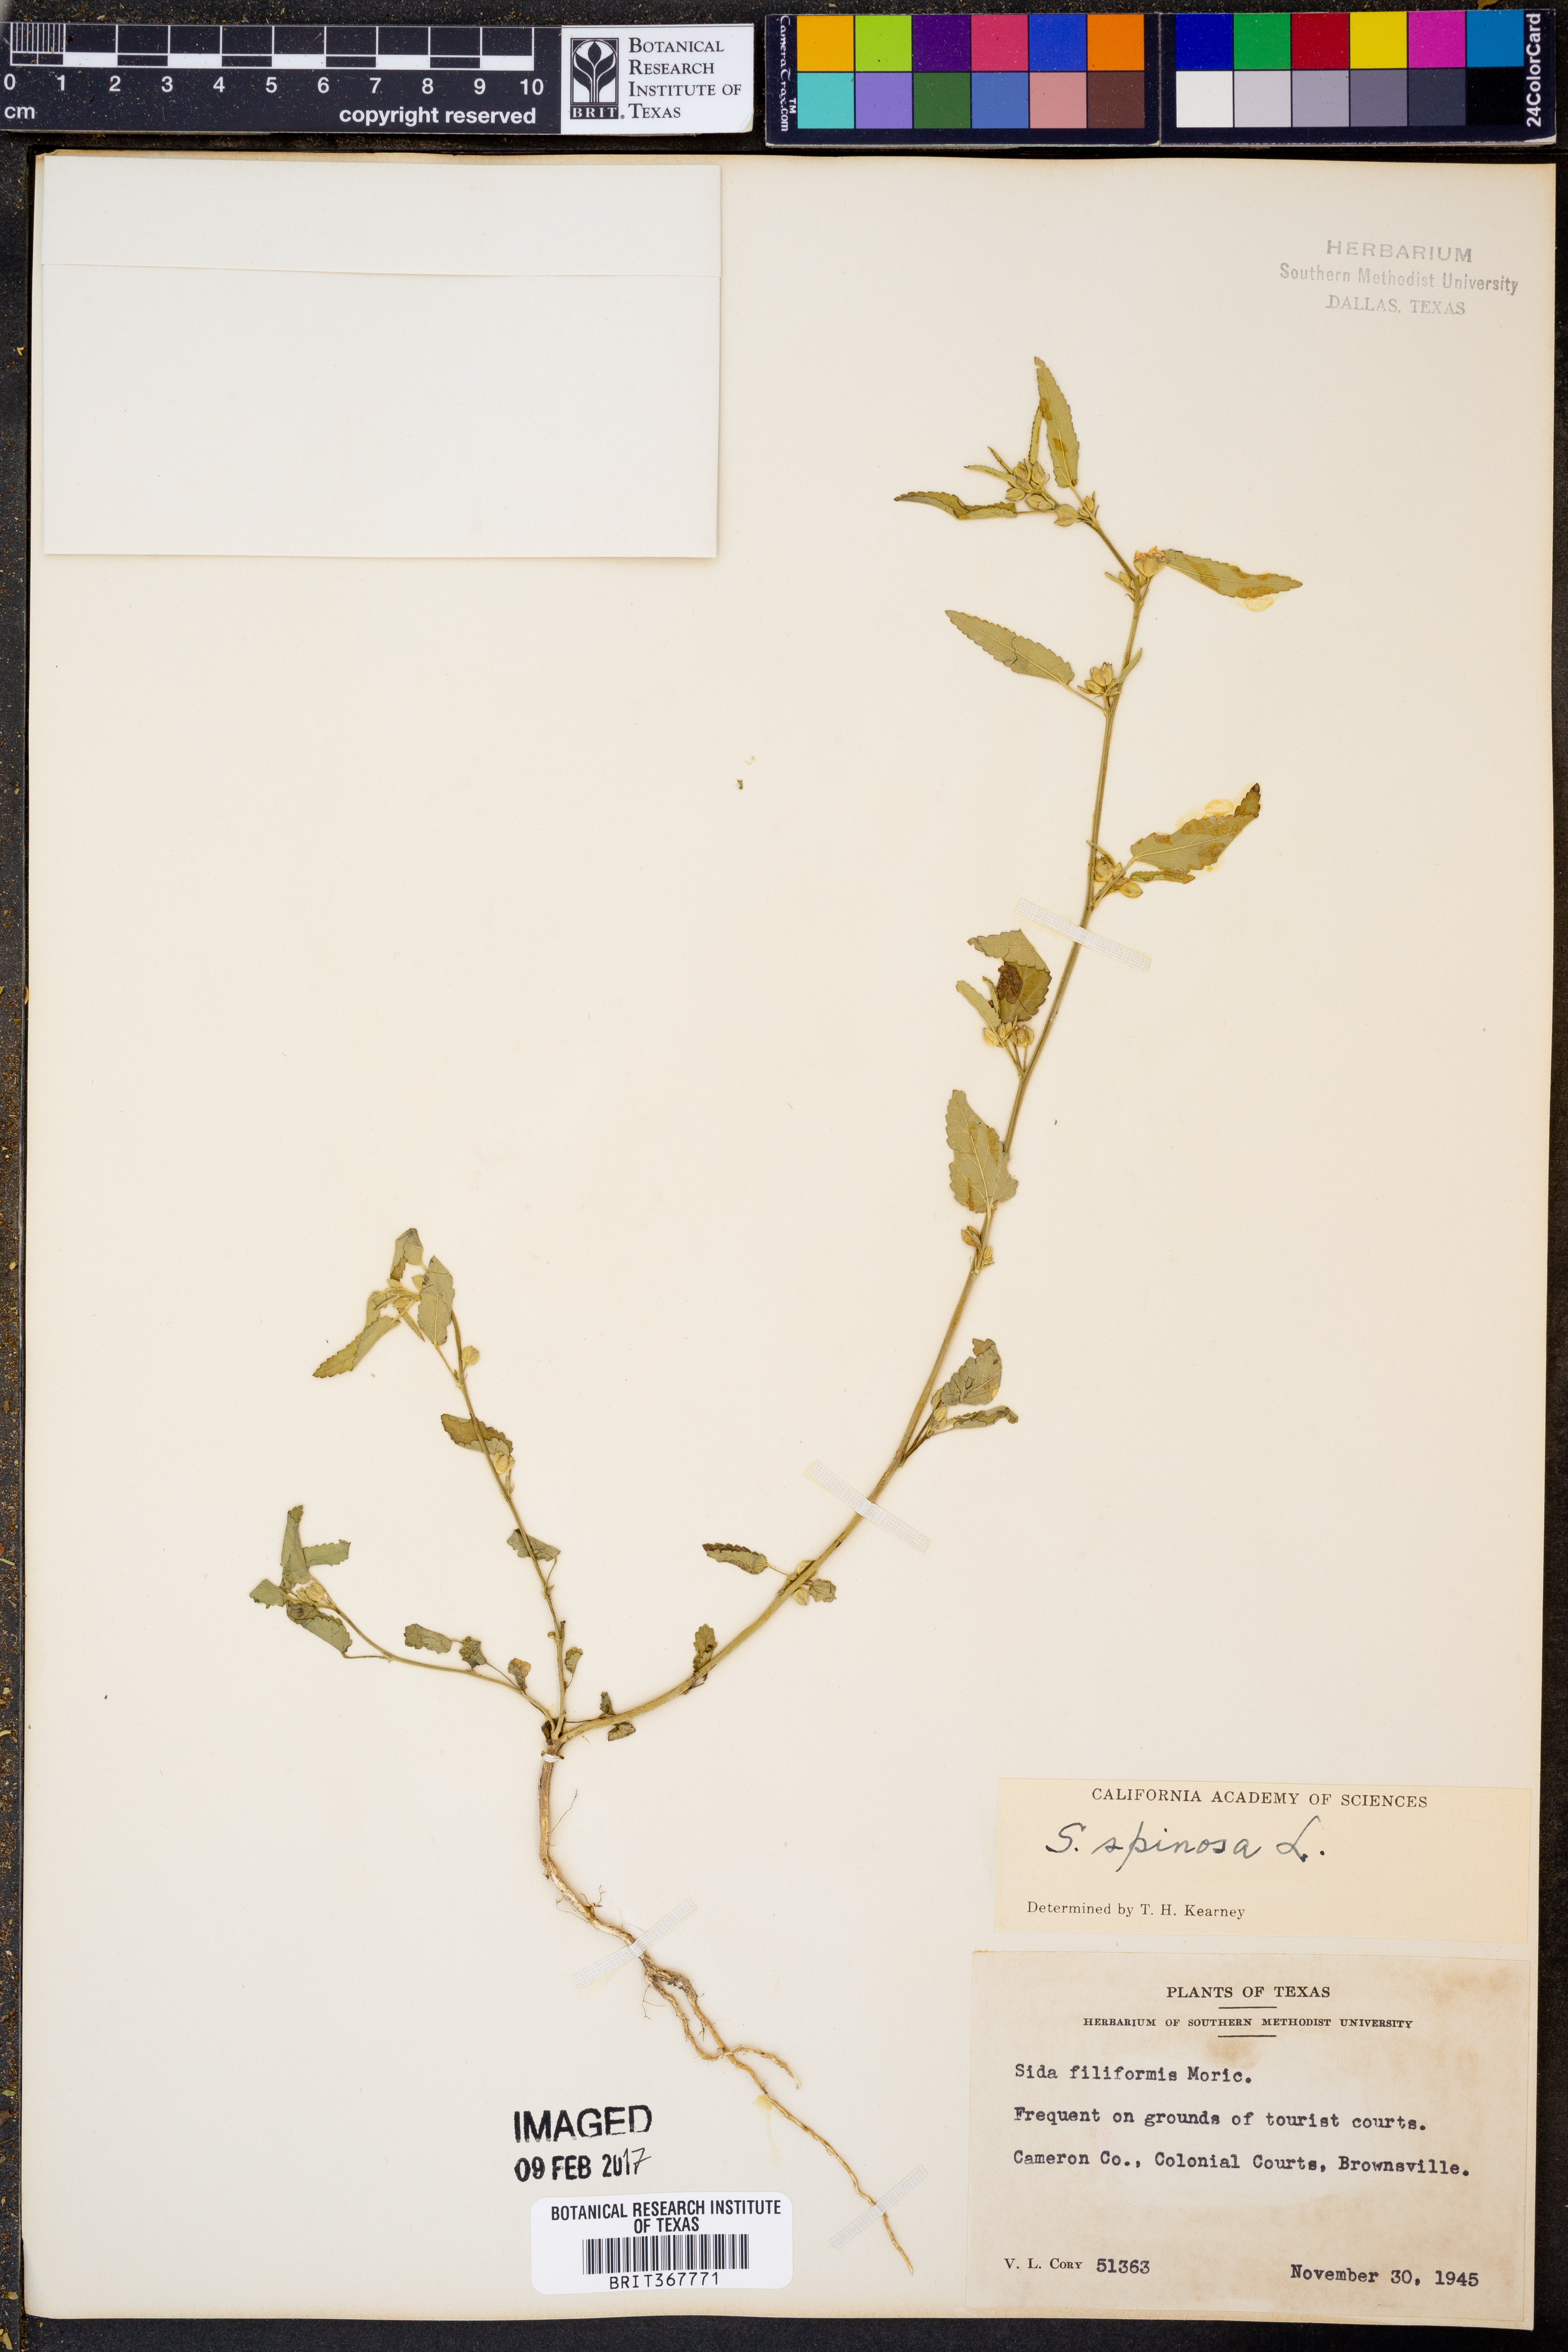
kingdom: Plantae
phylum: Tracheophyta
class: Magnoliopsida
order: Malvales
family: Malvaceae
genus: Sida
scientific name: Sida spinosa
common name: Prickly fanpetals
